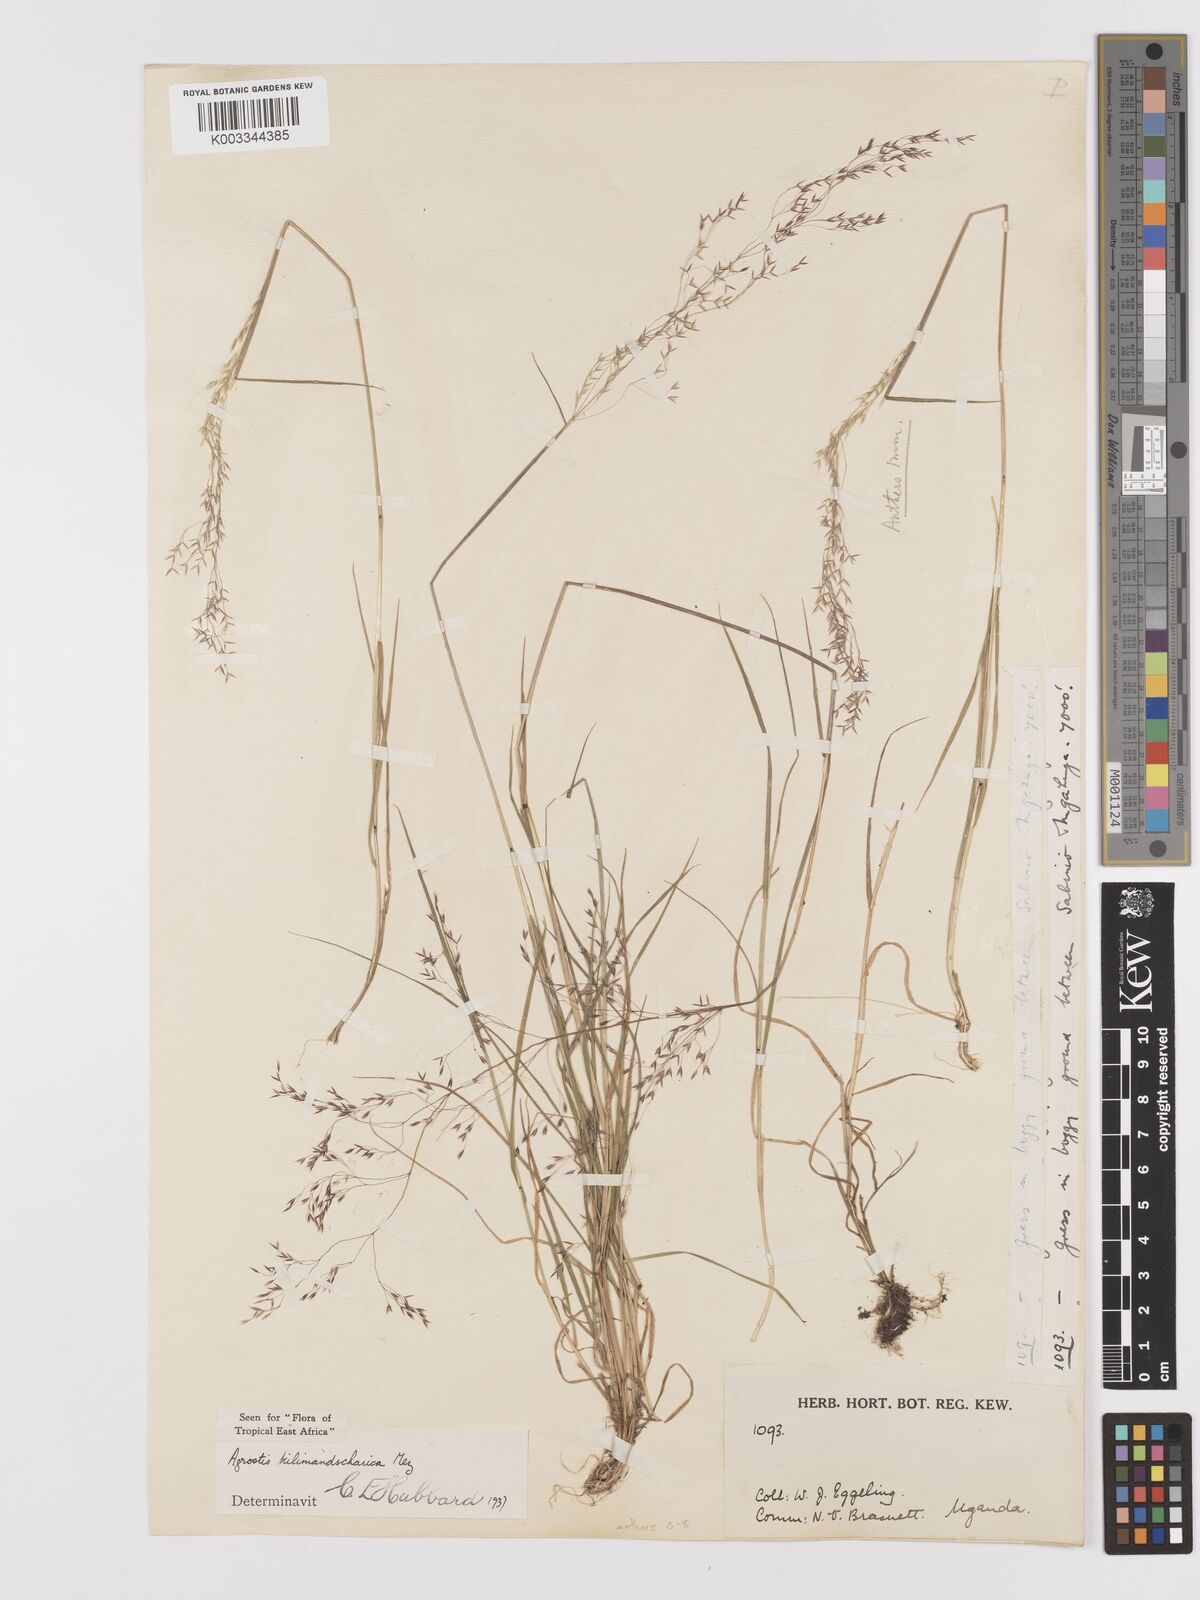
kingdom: Plantae
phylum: Tracheophyta
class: Liliopsida
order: Poales
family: Poaceae
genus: Agrostis
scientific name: Agrostis kilimandscharica
